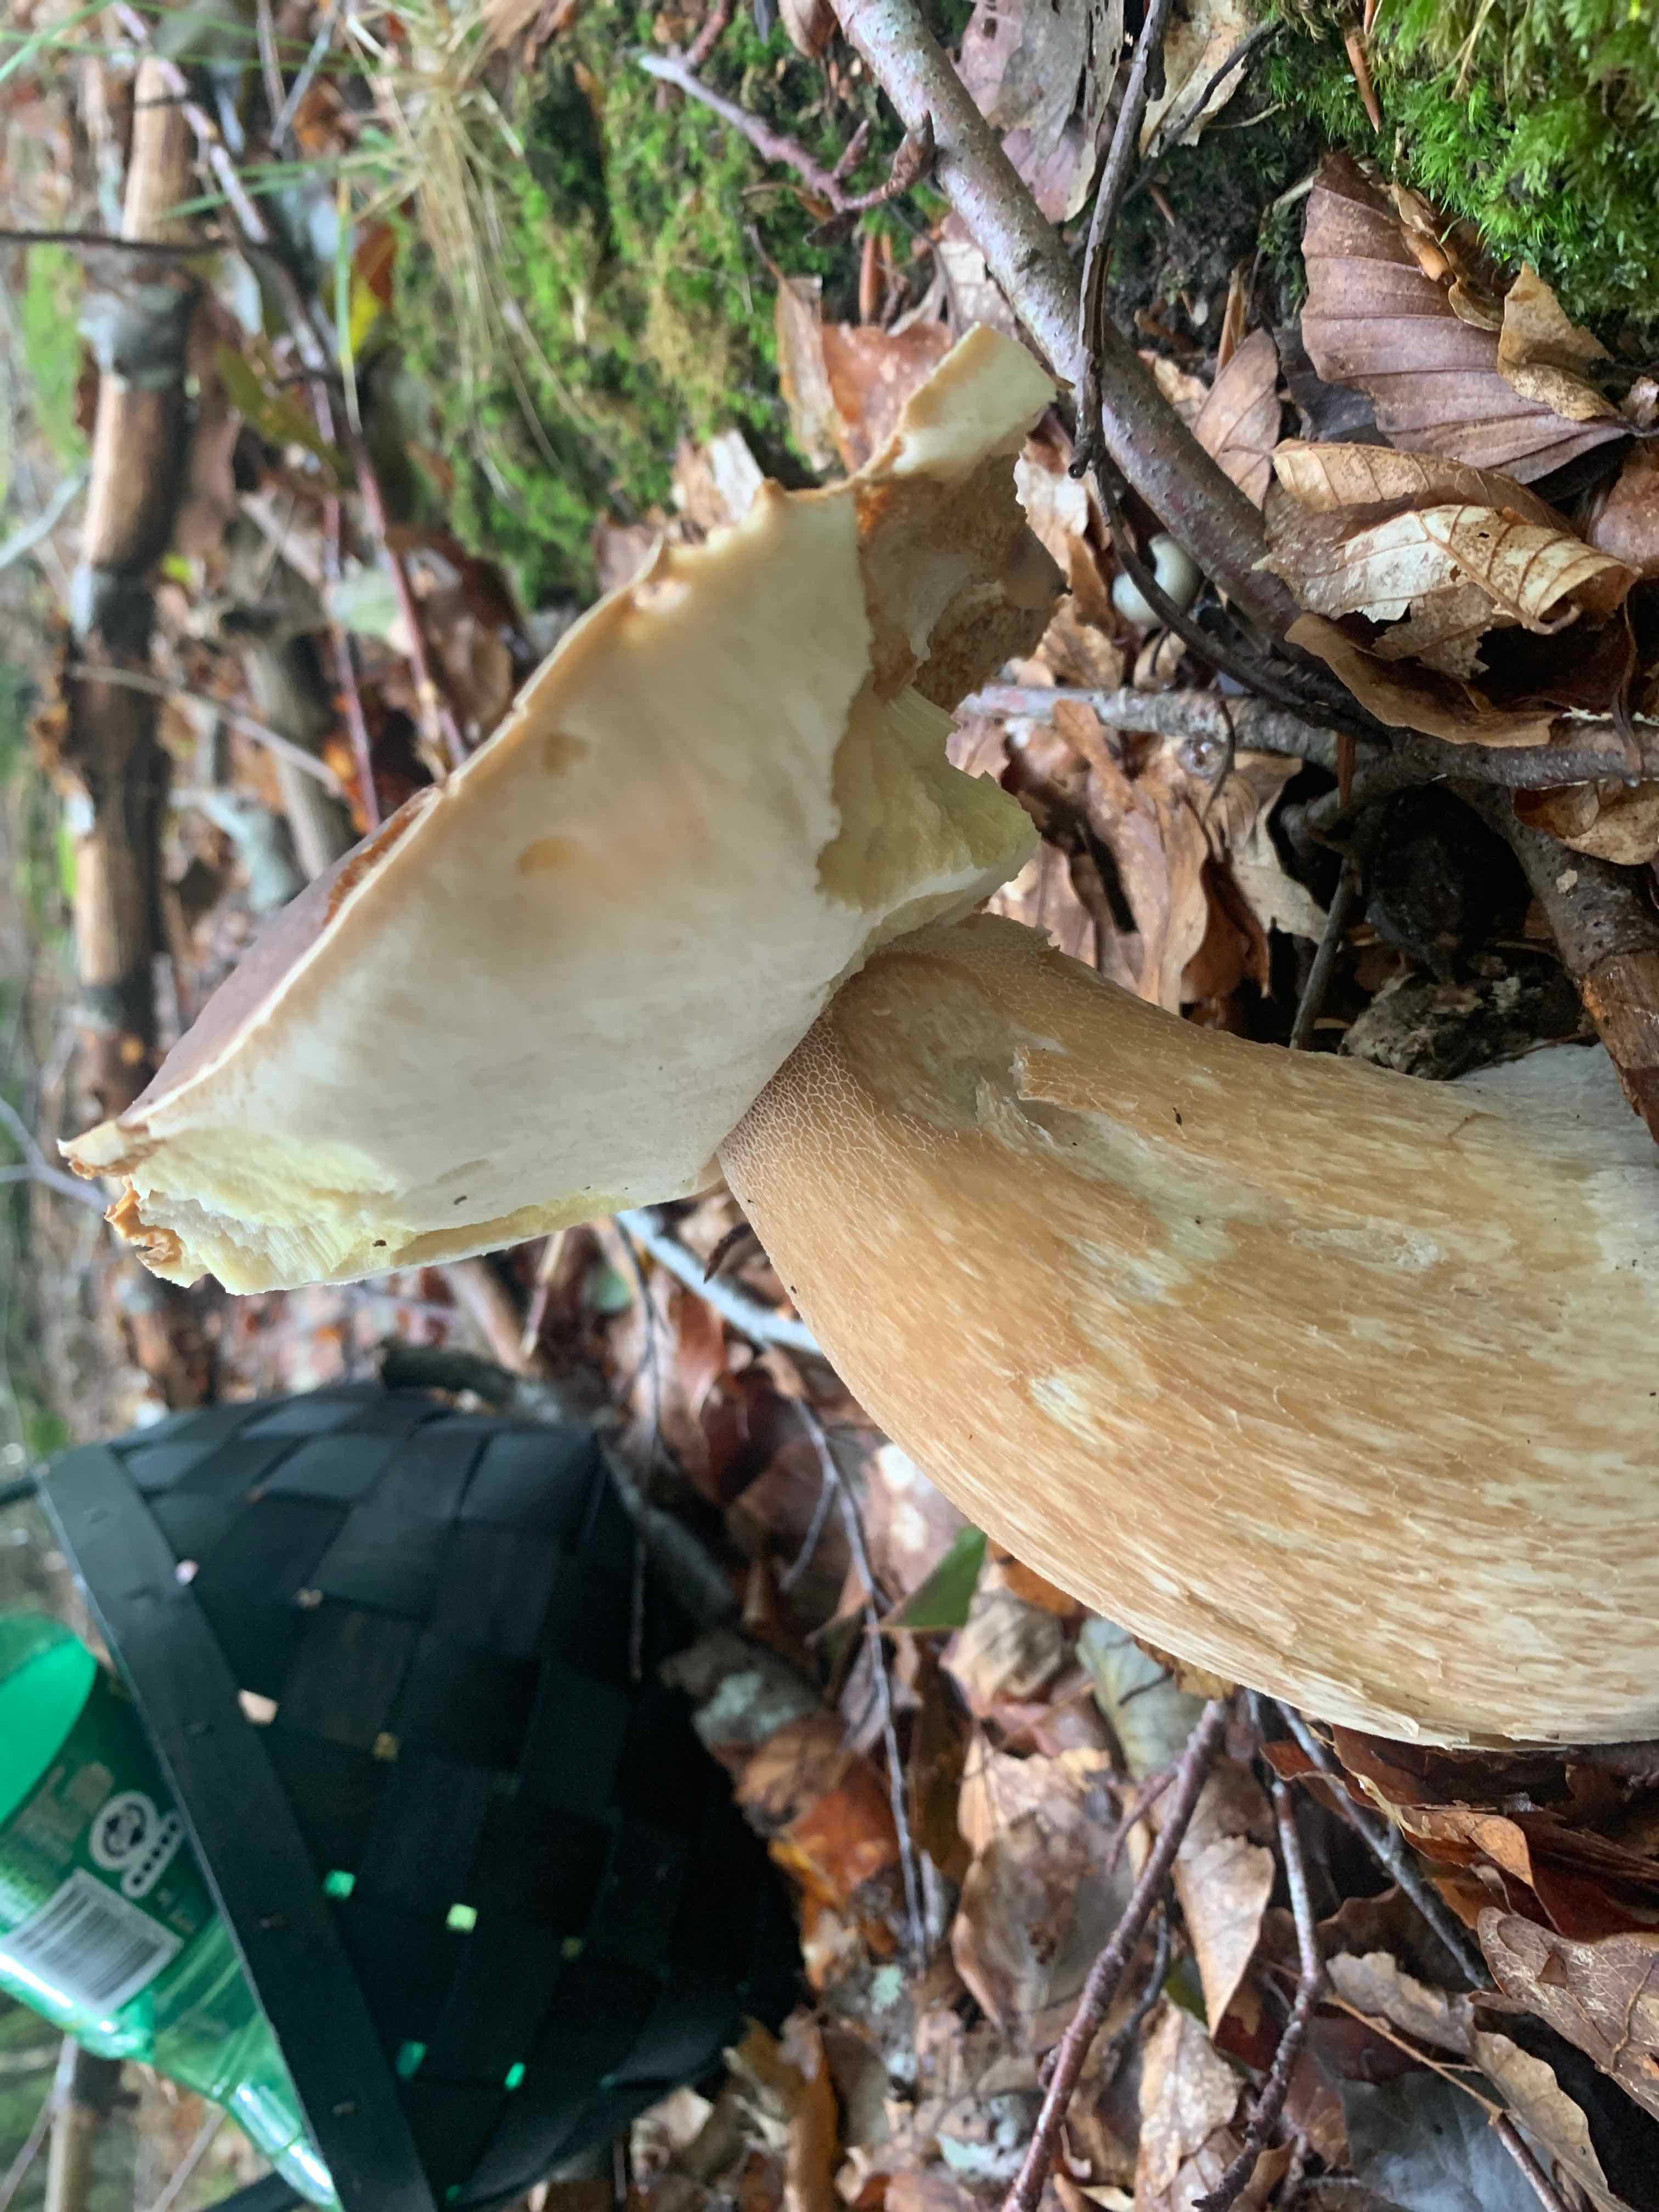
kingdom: Fungi
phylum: Basidiomycota
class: Agaricomycetes
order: Boletales
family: Boletaceae
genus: Boletus
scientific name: Boletus edulis
